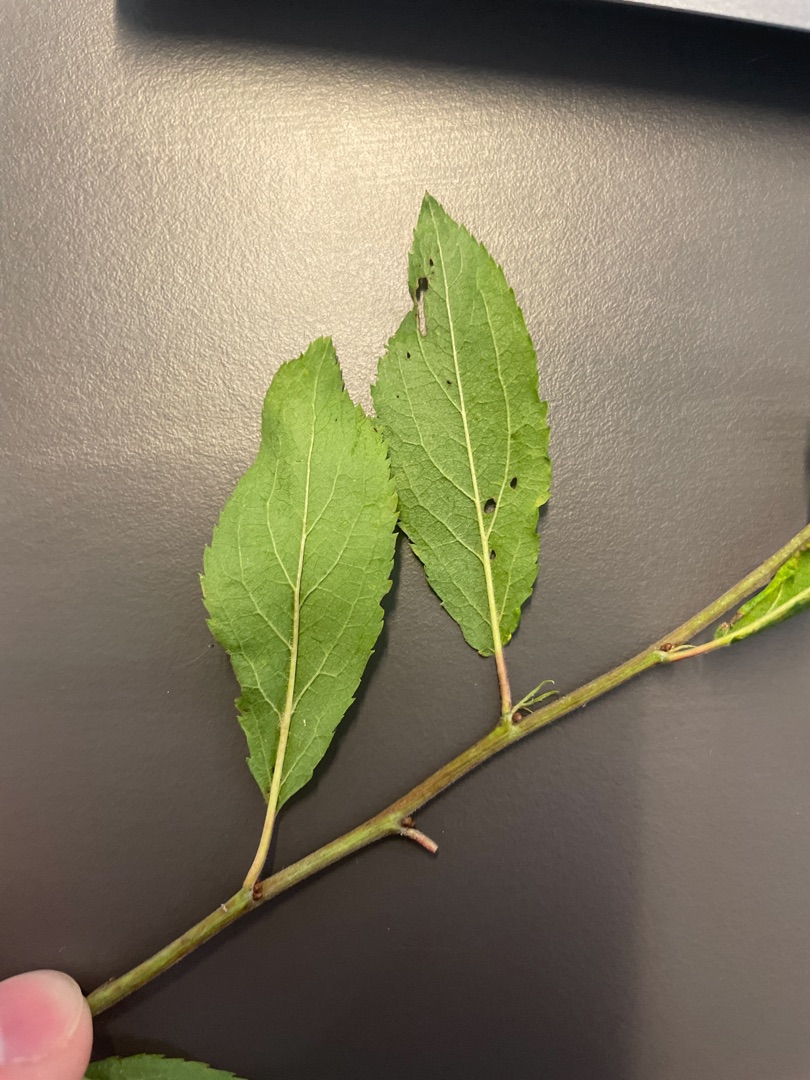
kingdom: Plantae
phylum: Tracheophyta
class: Magnoliopsida
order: Rosales
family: Rosaceae
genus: Prunus
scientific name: Prunus spinosa
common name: Slåen
